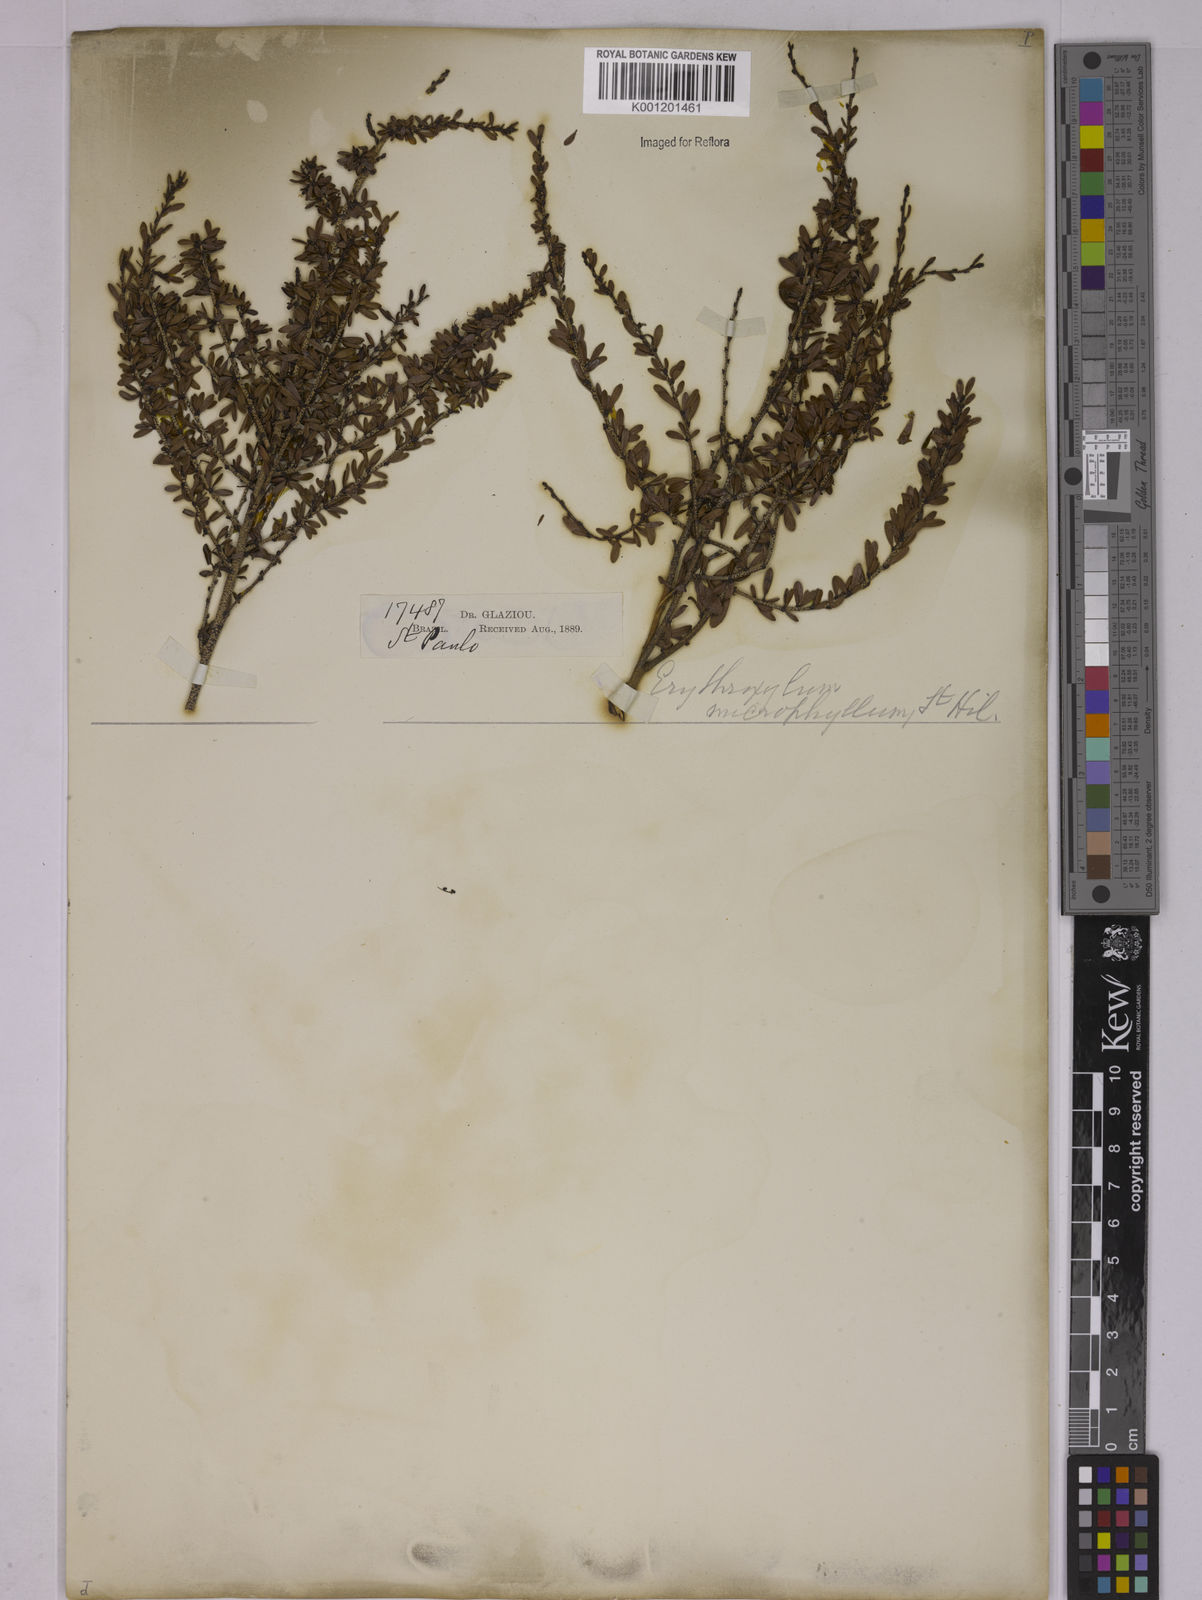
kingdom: Plantae
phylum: Tracheophyta
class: Magnoliopsida
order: Malpighiales
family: Erythroxylaceae
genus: Erythroxylum
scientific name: Erythroxylum microphyllum
